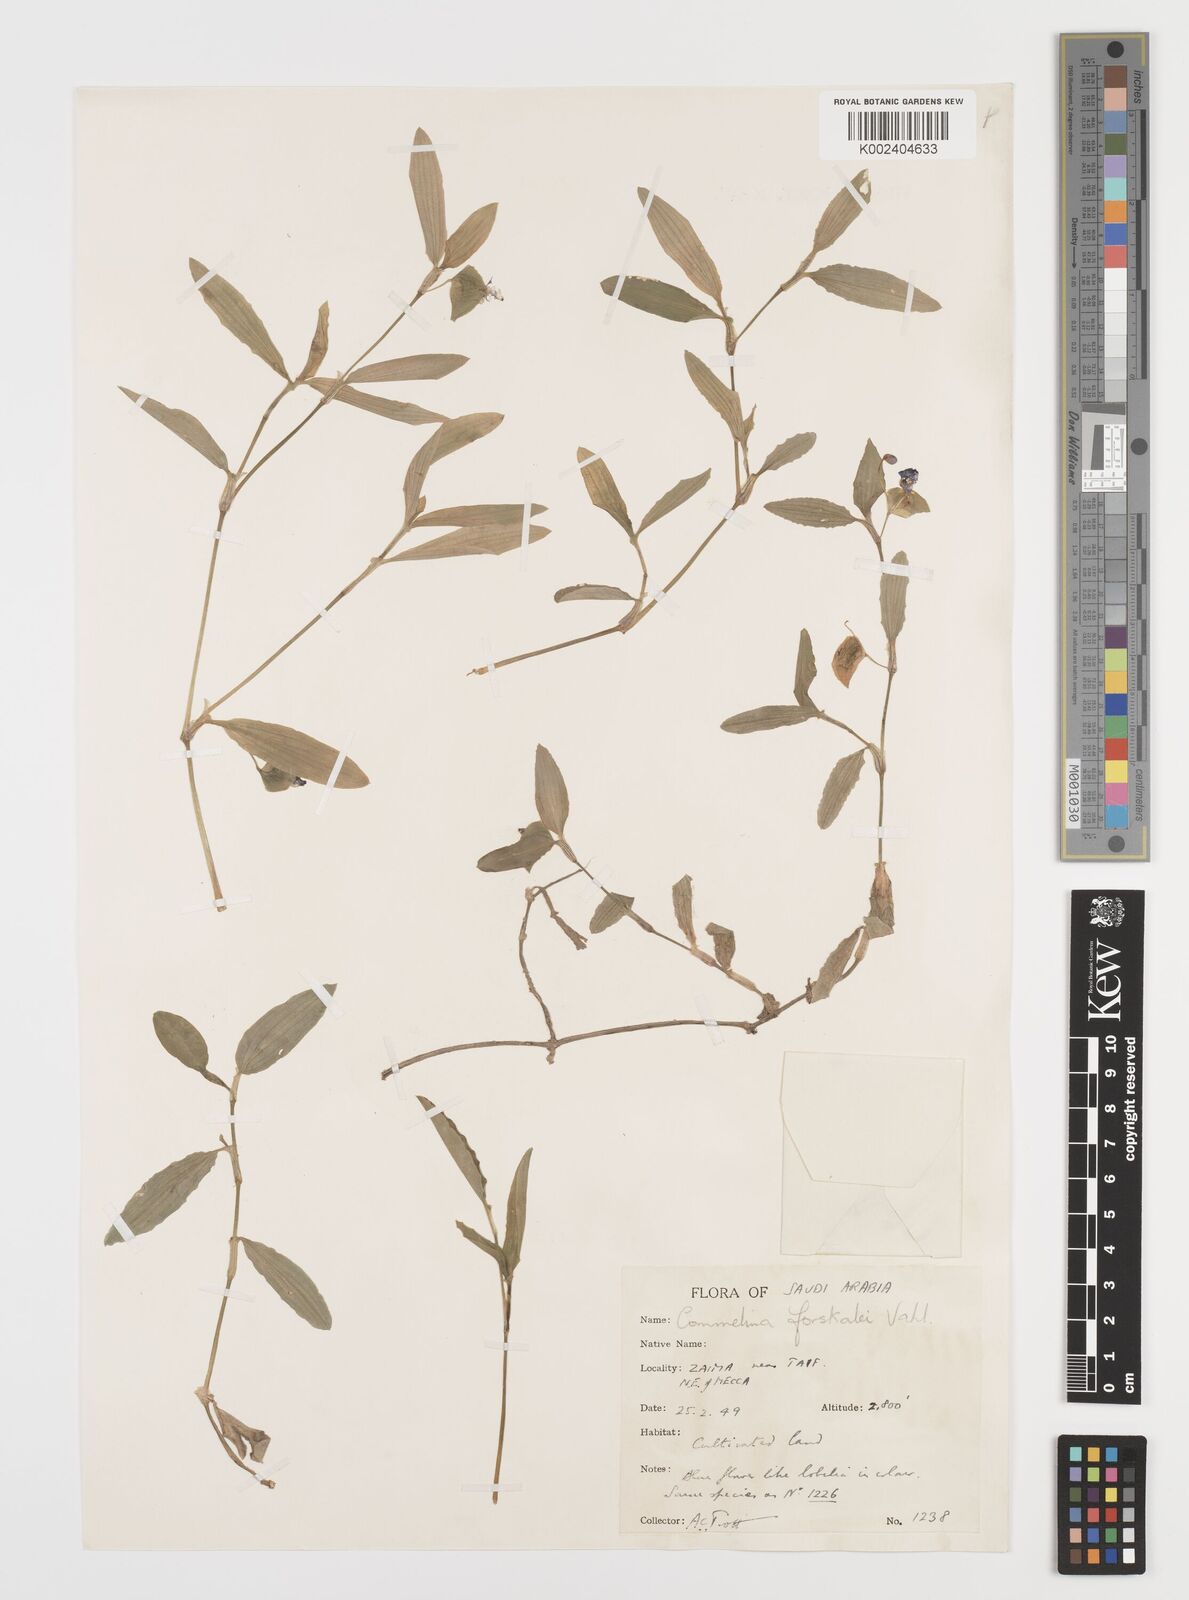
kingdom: Plantae
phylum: Tracheophyta
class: Liliopsida
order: Commelinales
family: Commelinaceae
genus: Commelina
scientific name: Commelina forskaolii
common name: Rat's ear
